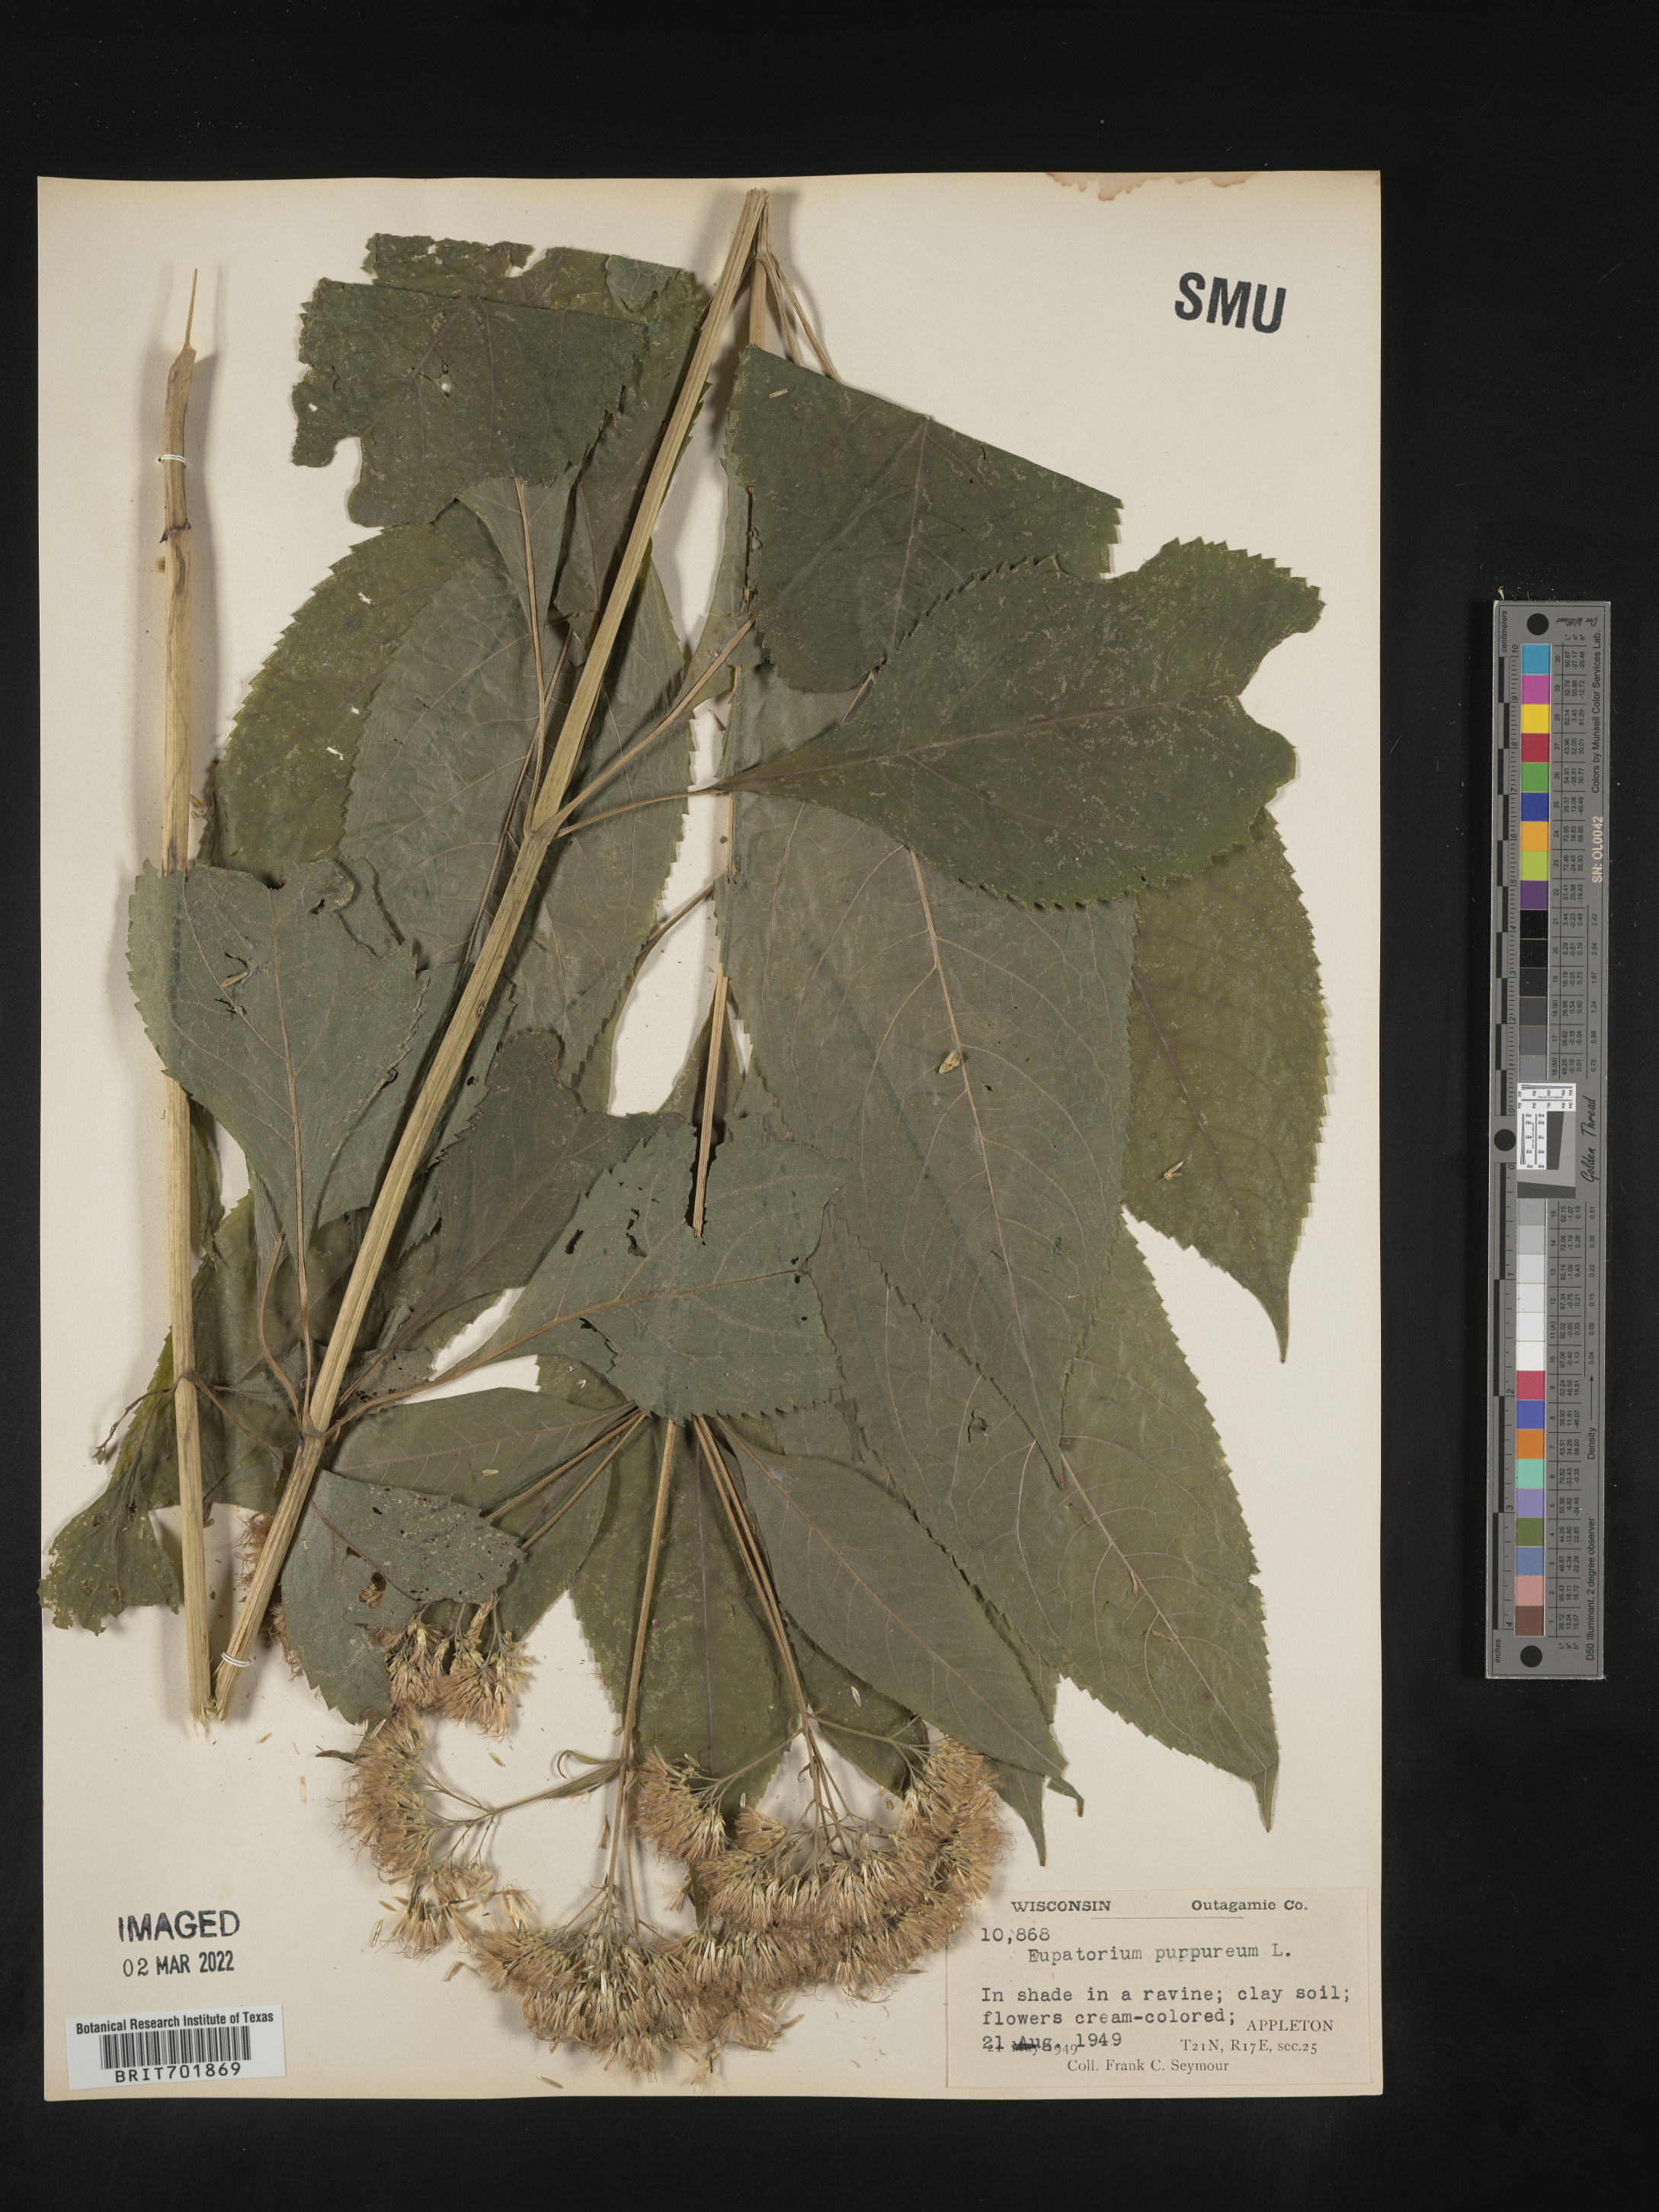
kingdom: Plantae
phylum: Tracheophyta
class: Magnoliopsida
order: Asterales
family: Asteraceae
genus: Eupatorium
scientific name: Eupatorium quaternum
